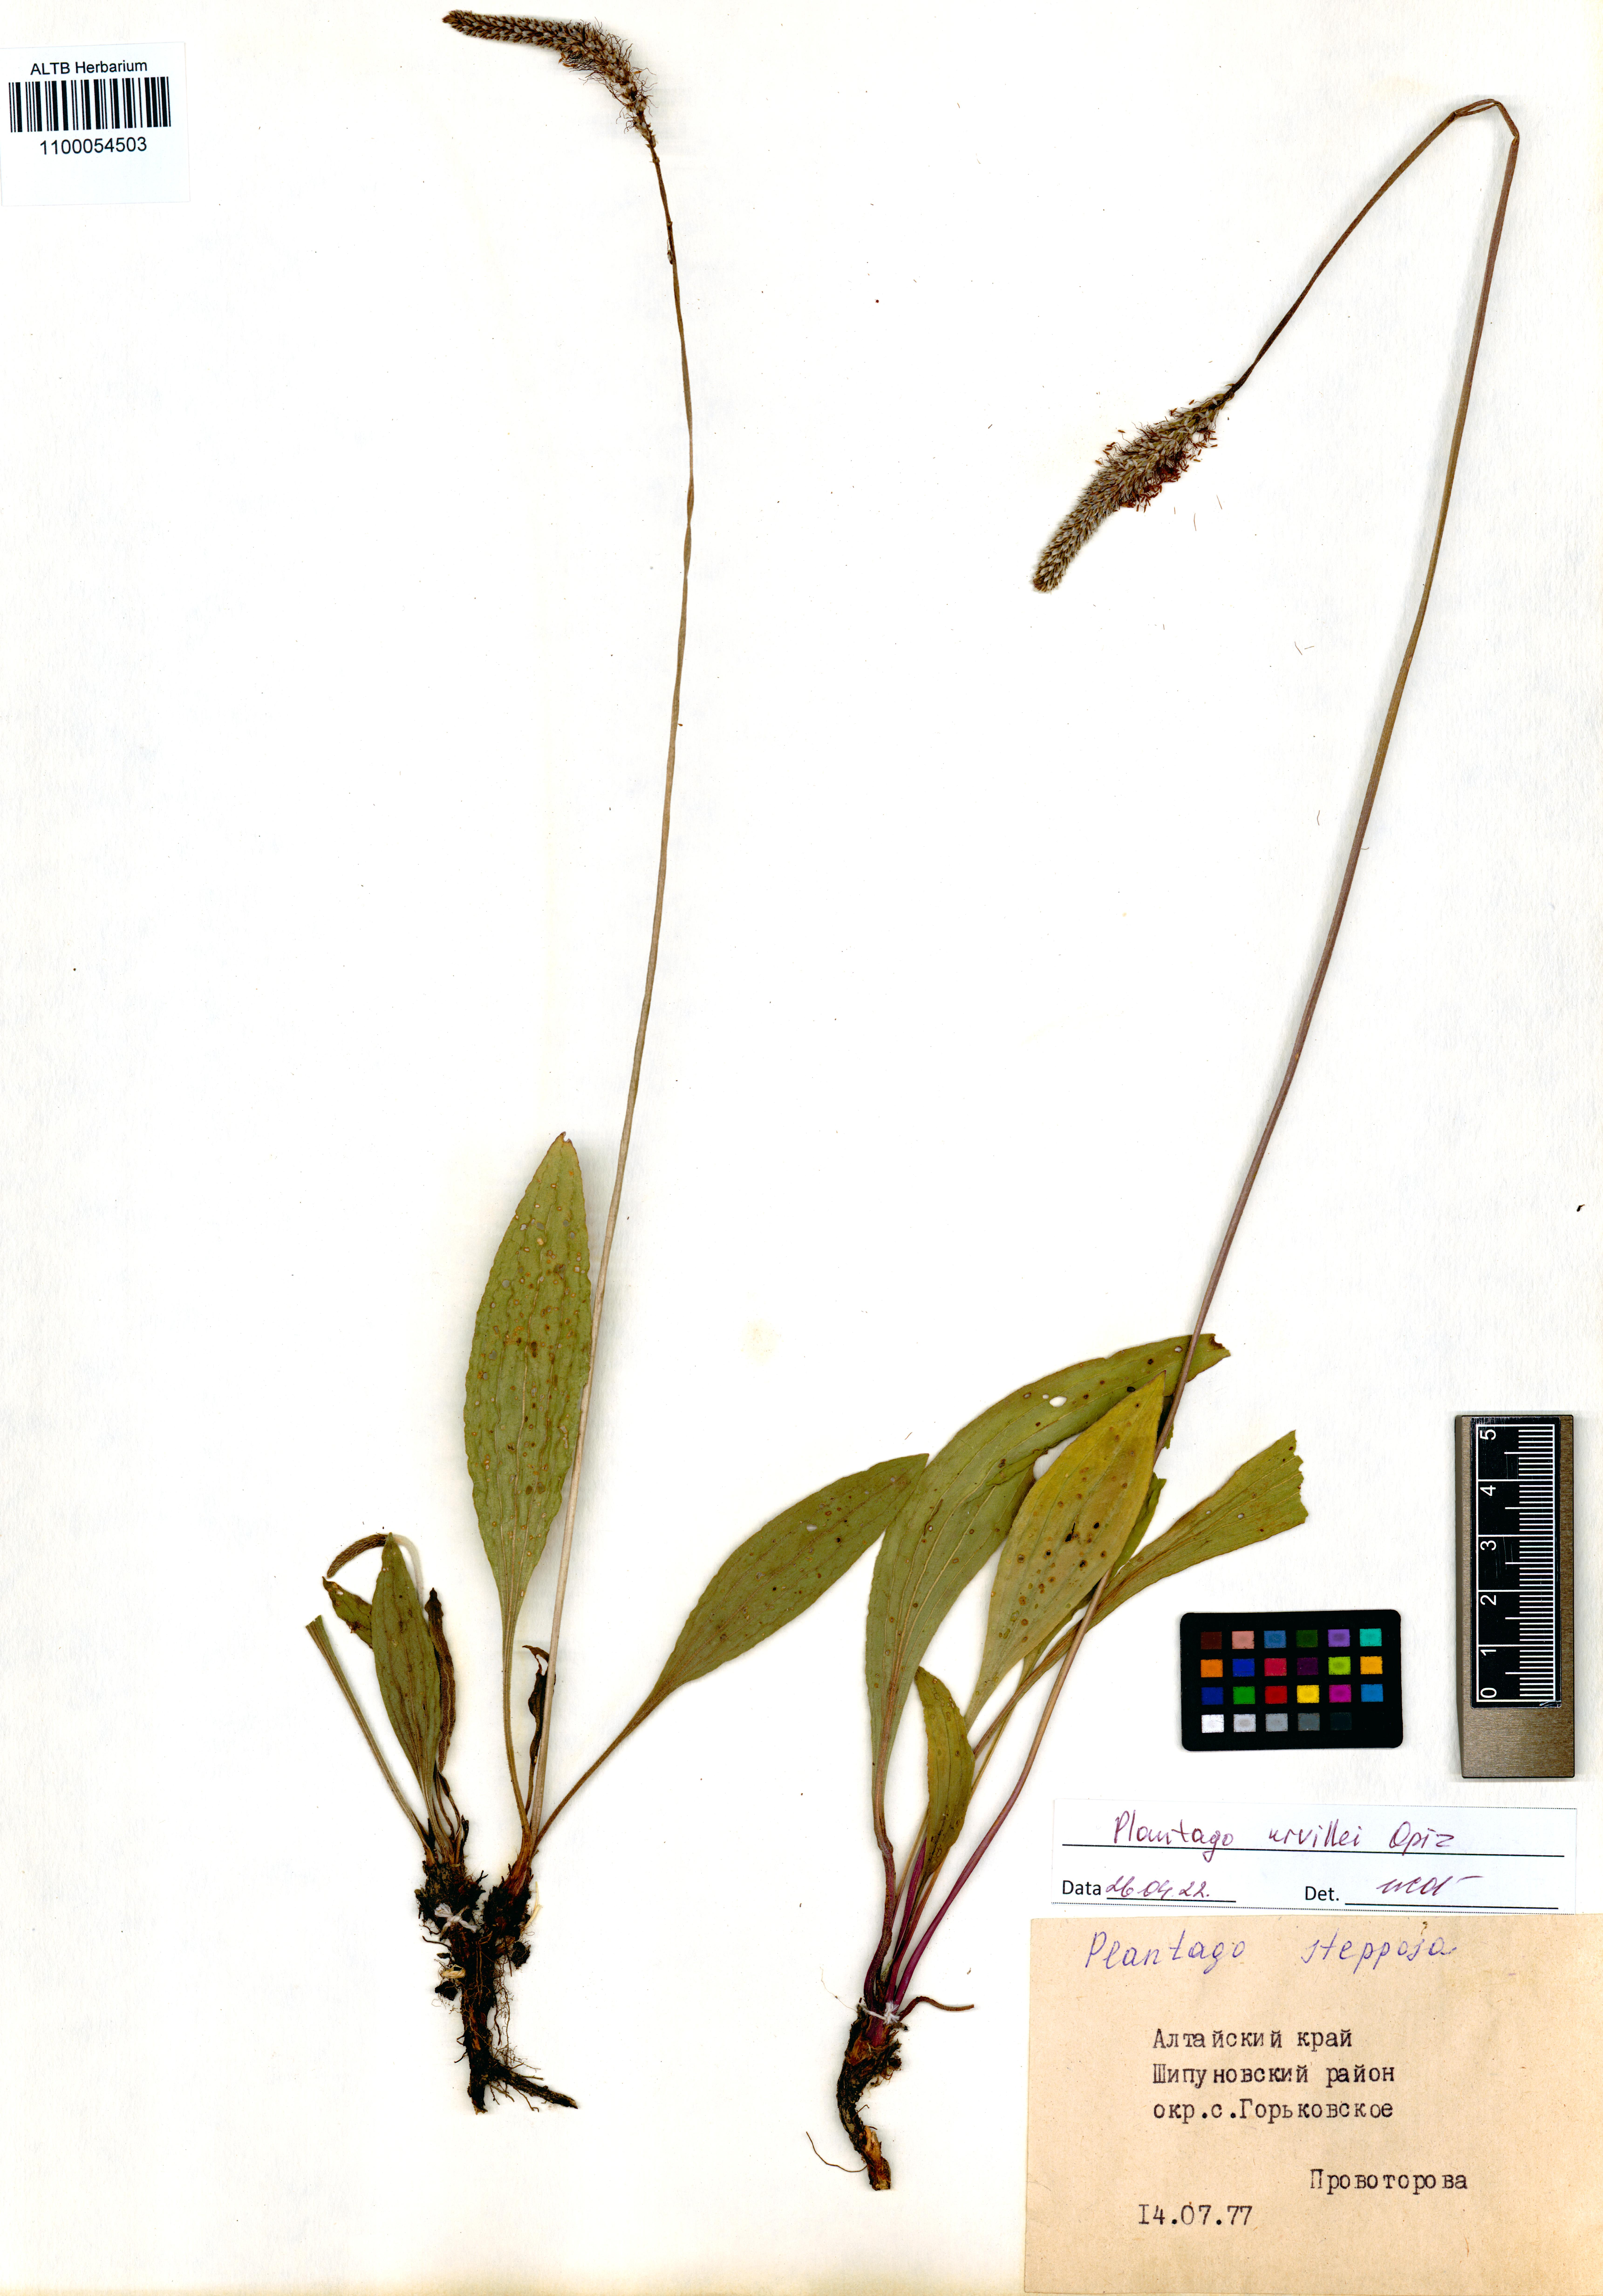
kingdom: Plantae
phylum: Tracheophyta
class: Magnoliopsida
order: Lamiales
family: Plantaginaceae
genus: Plantago
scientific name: Plantago urvillei
